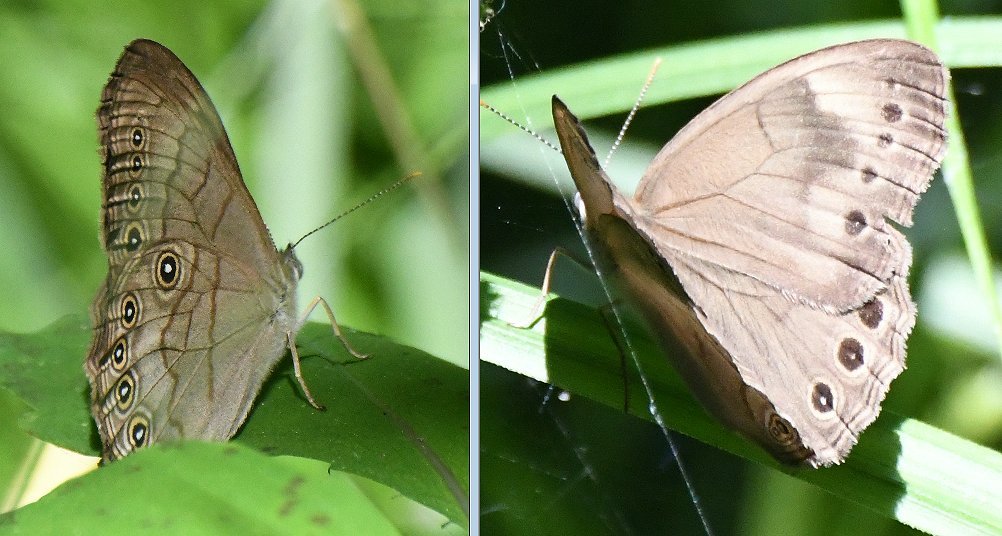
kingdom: Animalia
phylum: Arthropoda
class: Insecta
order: Lepidoptera
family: Nymphalidae
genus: Lethe
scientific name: Lethe eurydice
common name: Appalachian Eyed Brown
